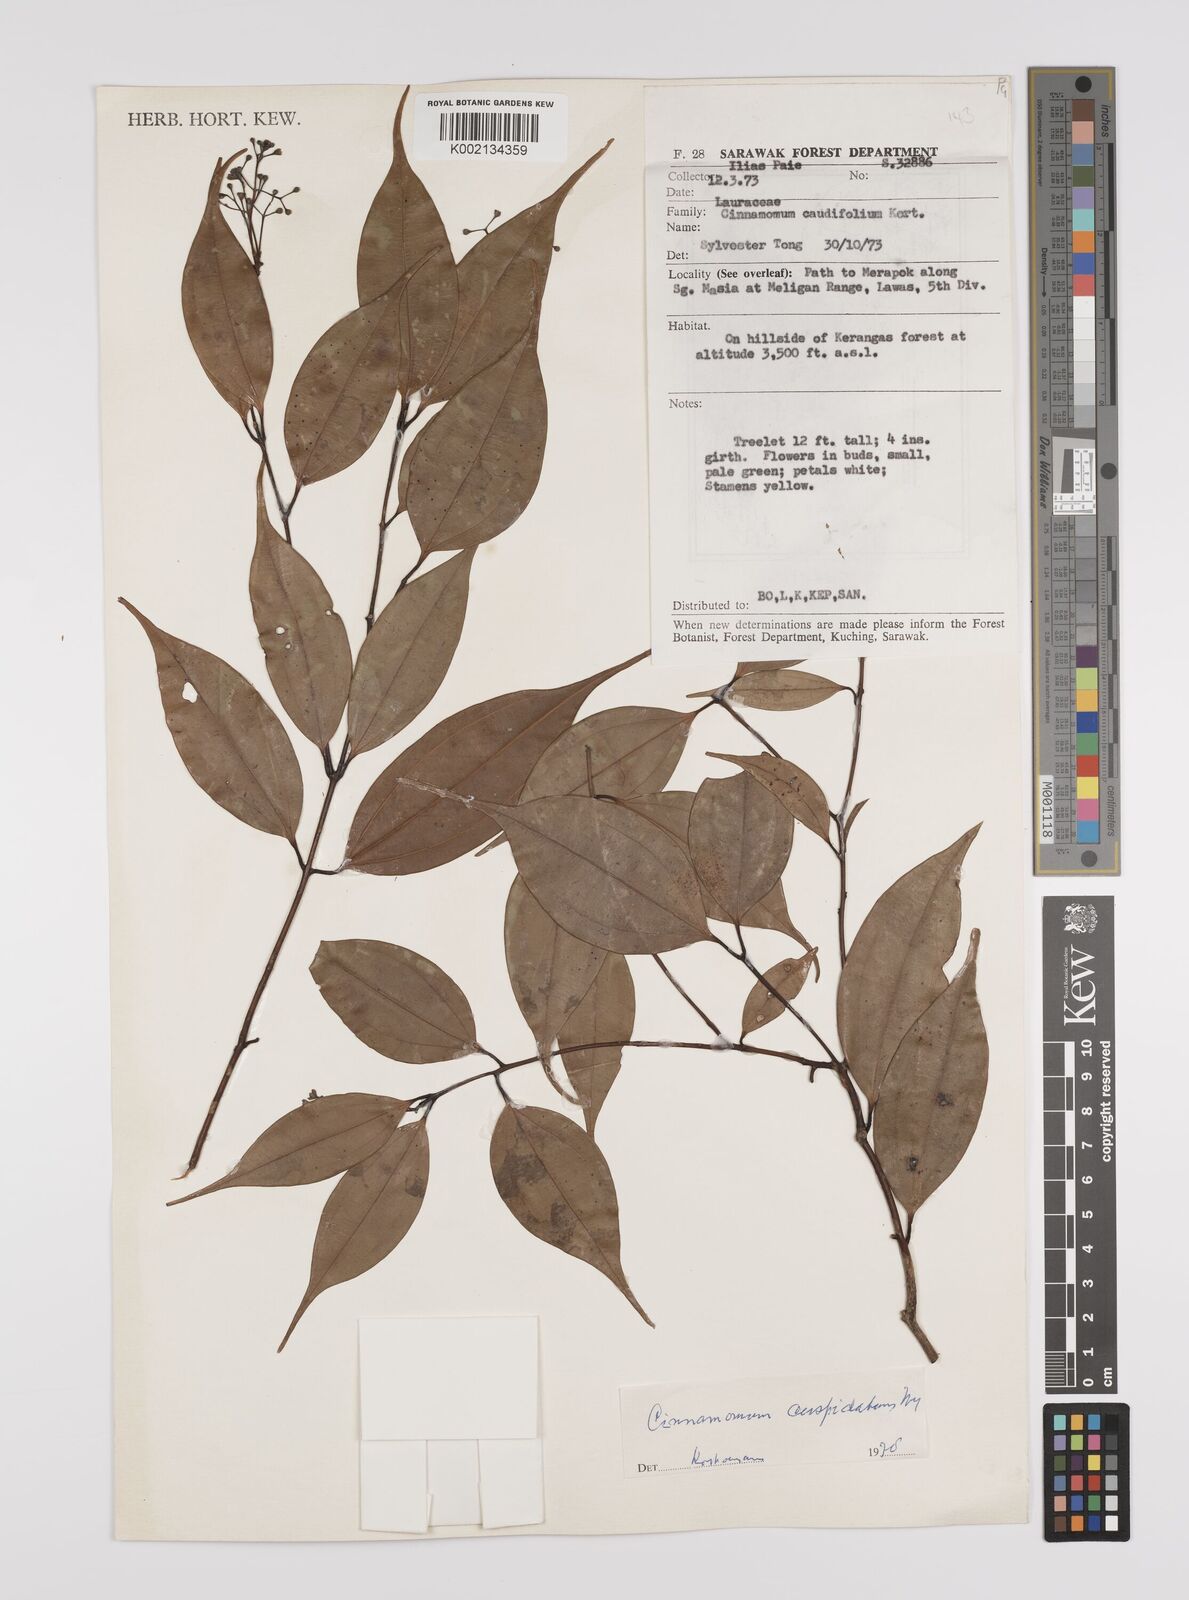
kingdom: Plantae
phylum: Tracheophyta
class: Magnoliopsida
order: Laurales
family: Lauraceae
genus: Cinnamomum
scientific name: Cinnamomum cuspidatum
